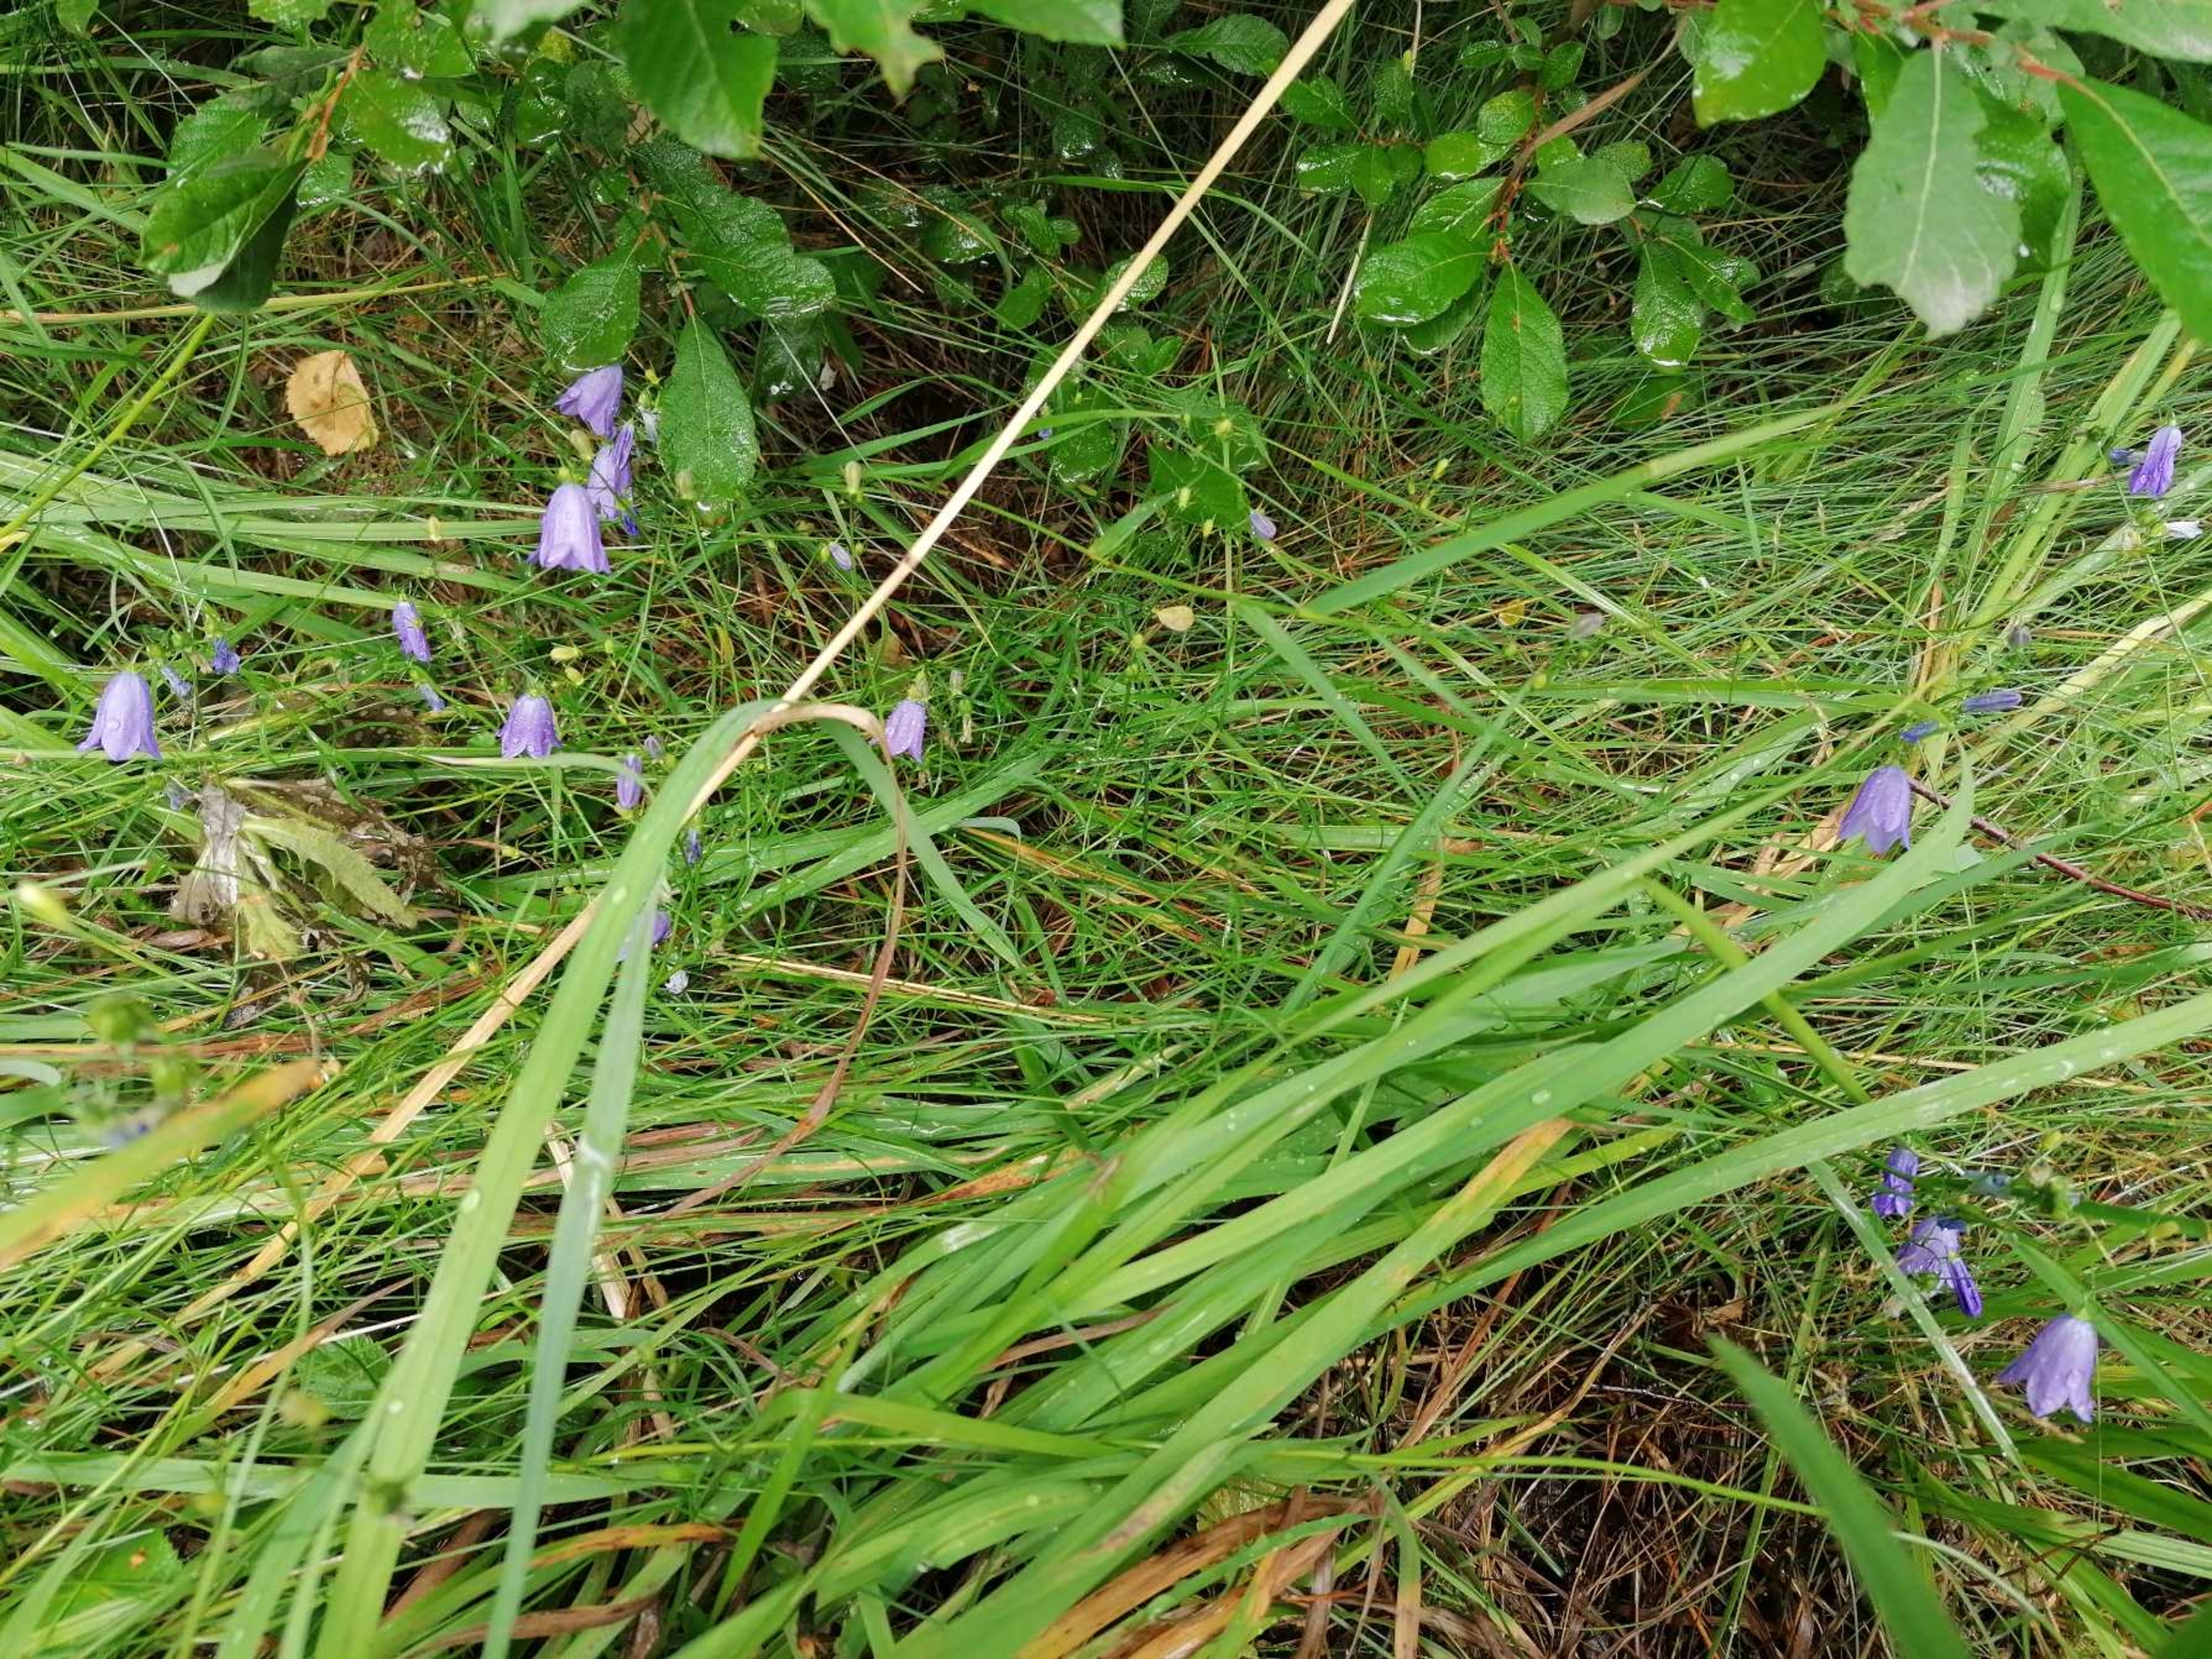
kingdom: Plantae
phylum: Tracheophyta
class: Magnoliopsida
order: Asterales
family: Campanulaceae
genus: Campanula
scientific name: Campanula rotundifolia
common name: Liden klokke
